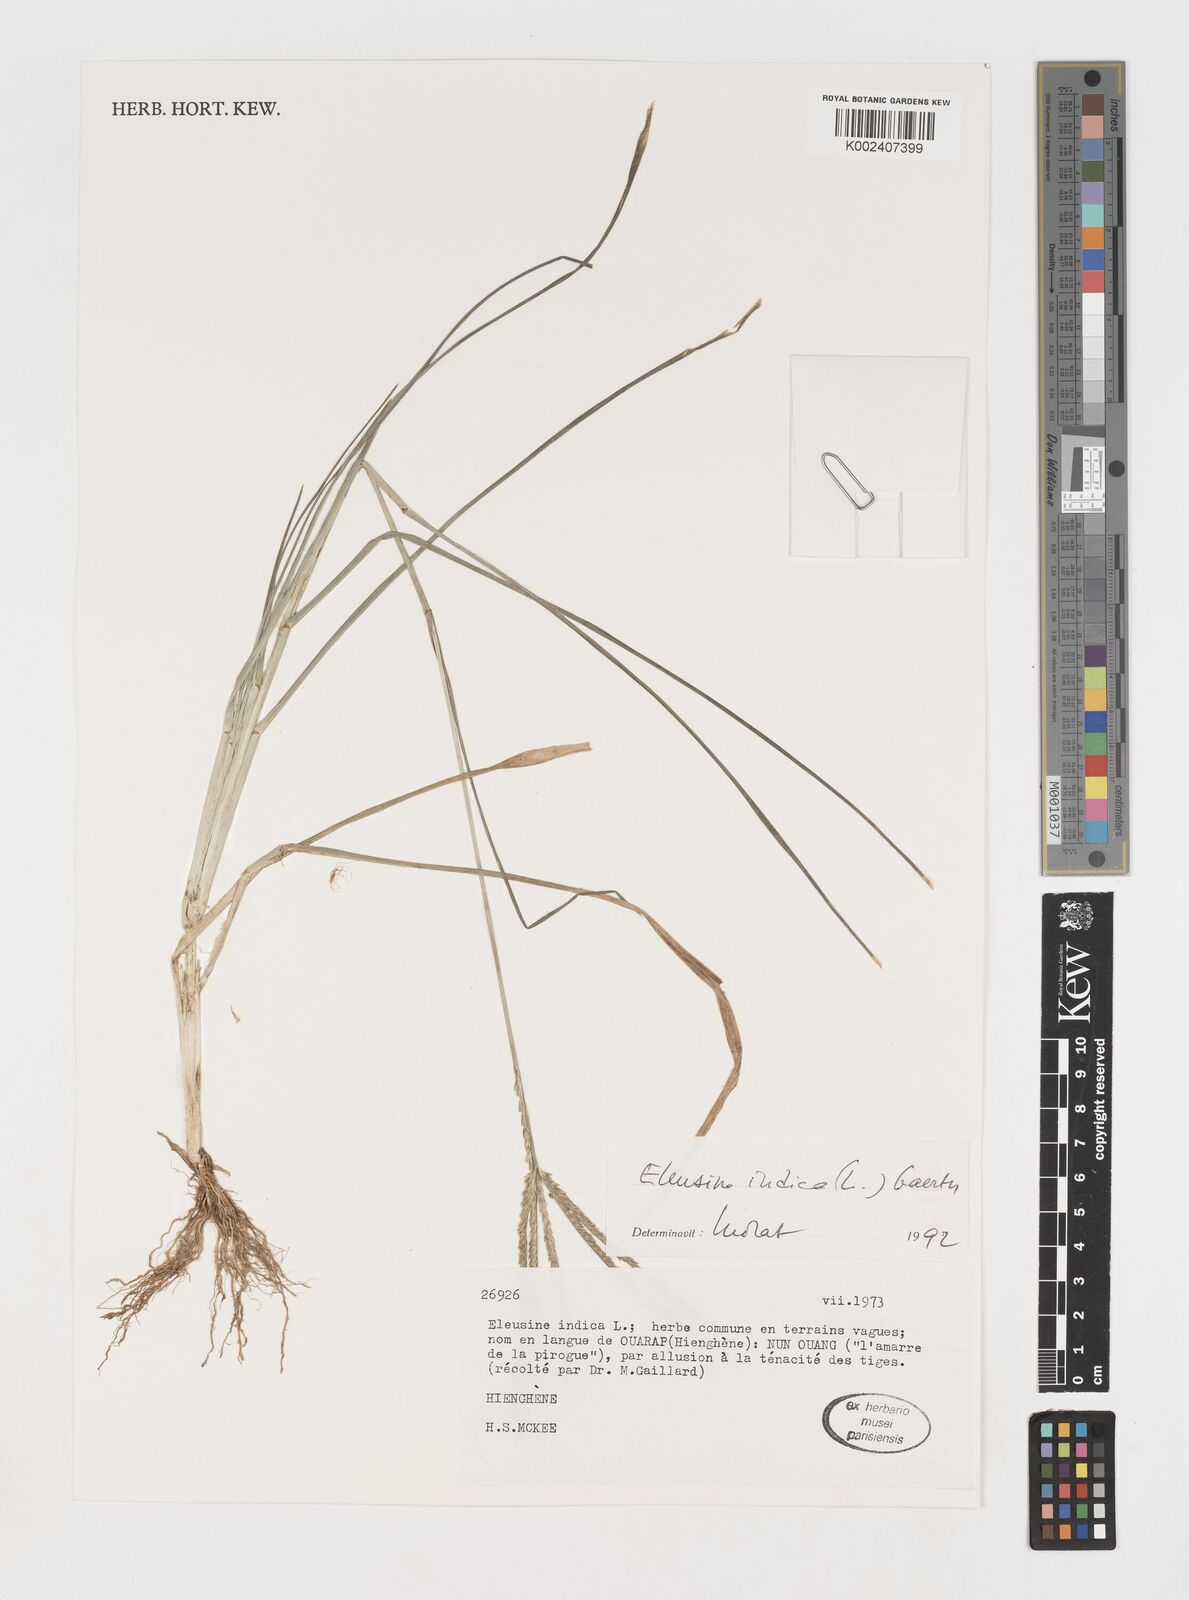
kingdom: Plantae
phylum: Tracheophyta
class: Liliopsida
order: Poales
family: Poaceae
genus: Eleusine
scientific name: Eleusine indica
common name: Yard-grass
